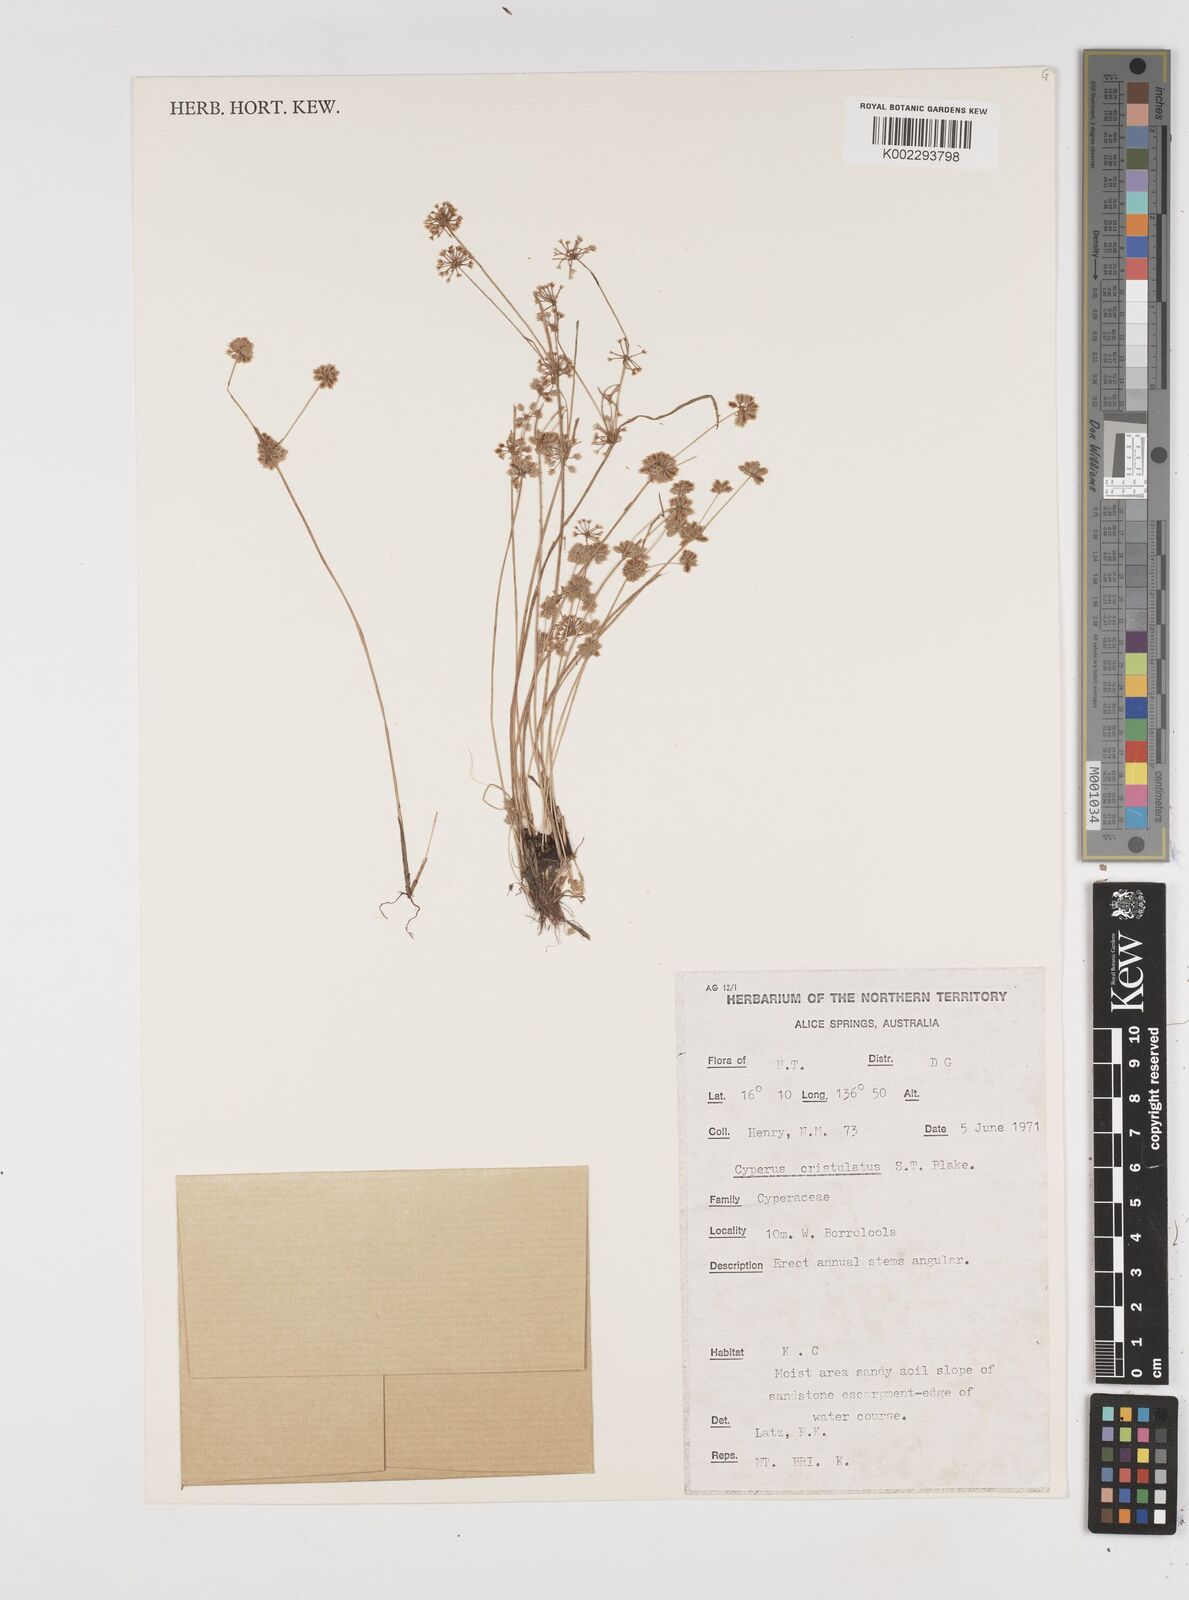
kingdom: Plantae
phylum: Tracheophyta
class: Liliopsida
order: Poales
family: Cyperaceae
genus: Cyperus
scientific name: Cyperus cristulatus
